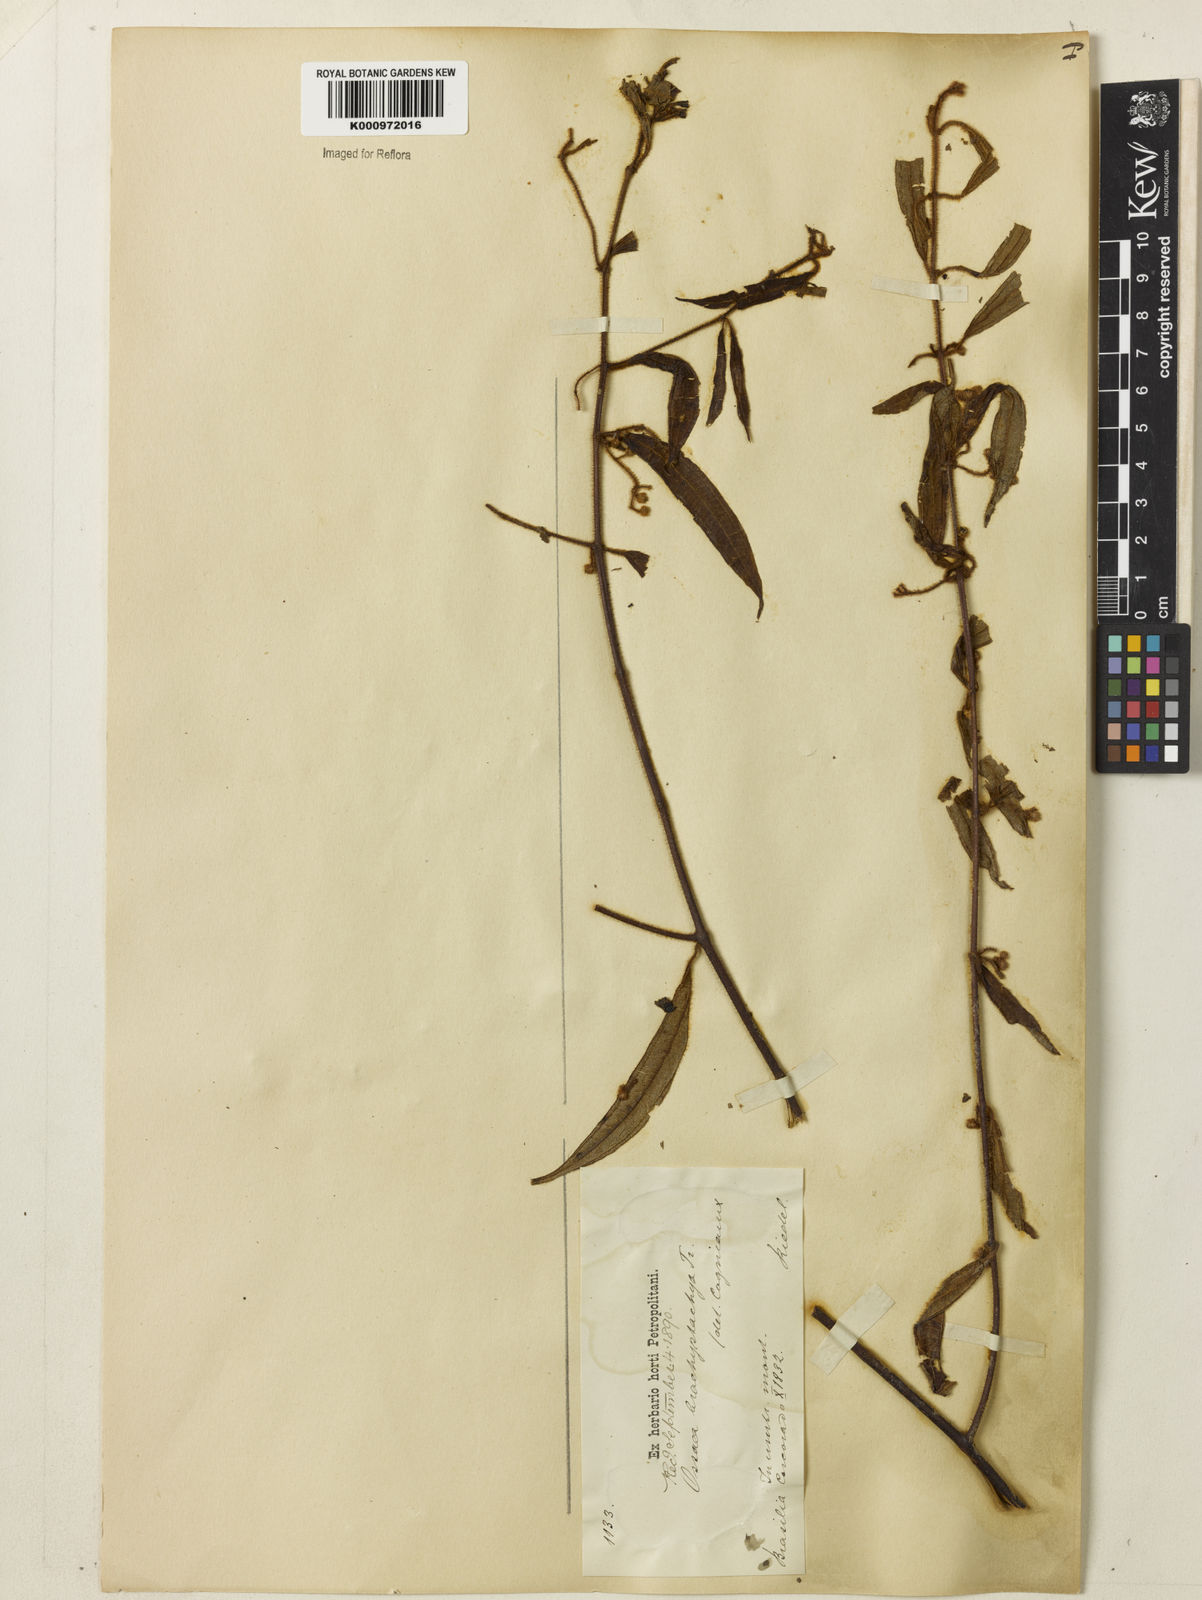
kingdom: Plantae
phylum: Tracheophyta
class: Magnoliopsida
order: Myrtales
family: Melastomataceae
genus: Miconia
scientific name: Miconia amygdaloides
